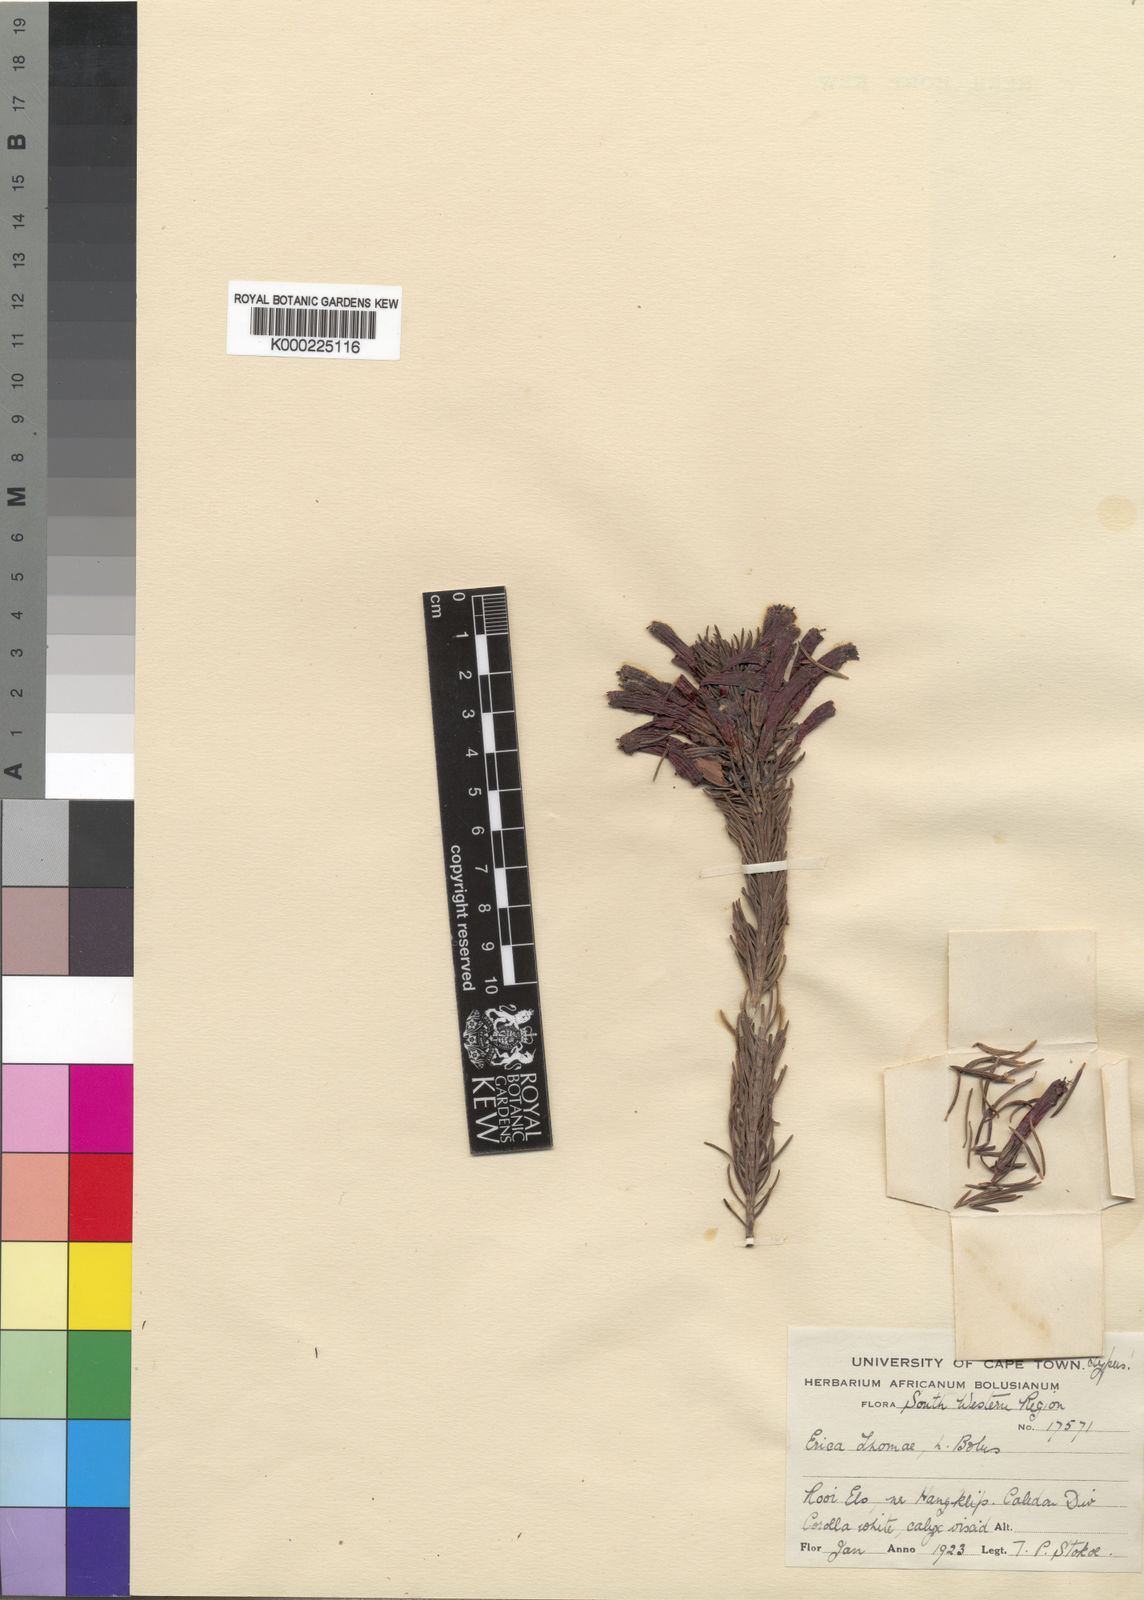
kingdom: Plantae
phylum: Tracheophyta
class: Magnoliopsida
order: Ericales
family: Ericaceae
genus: Erica
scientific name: Erica thomae
